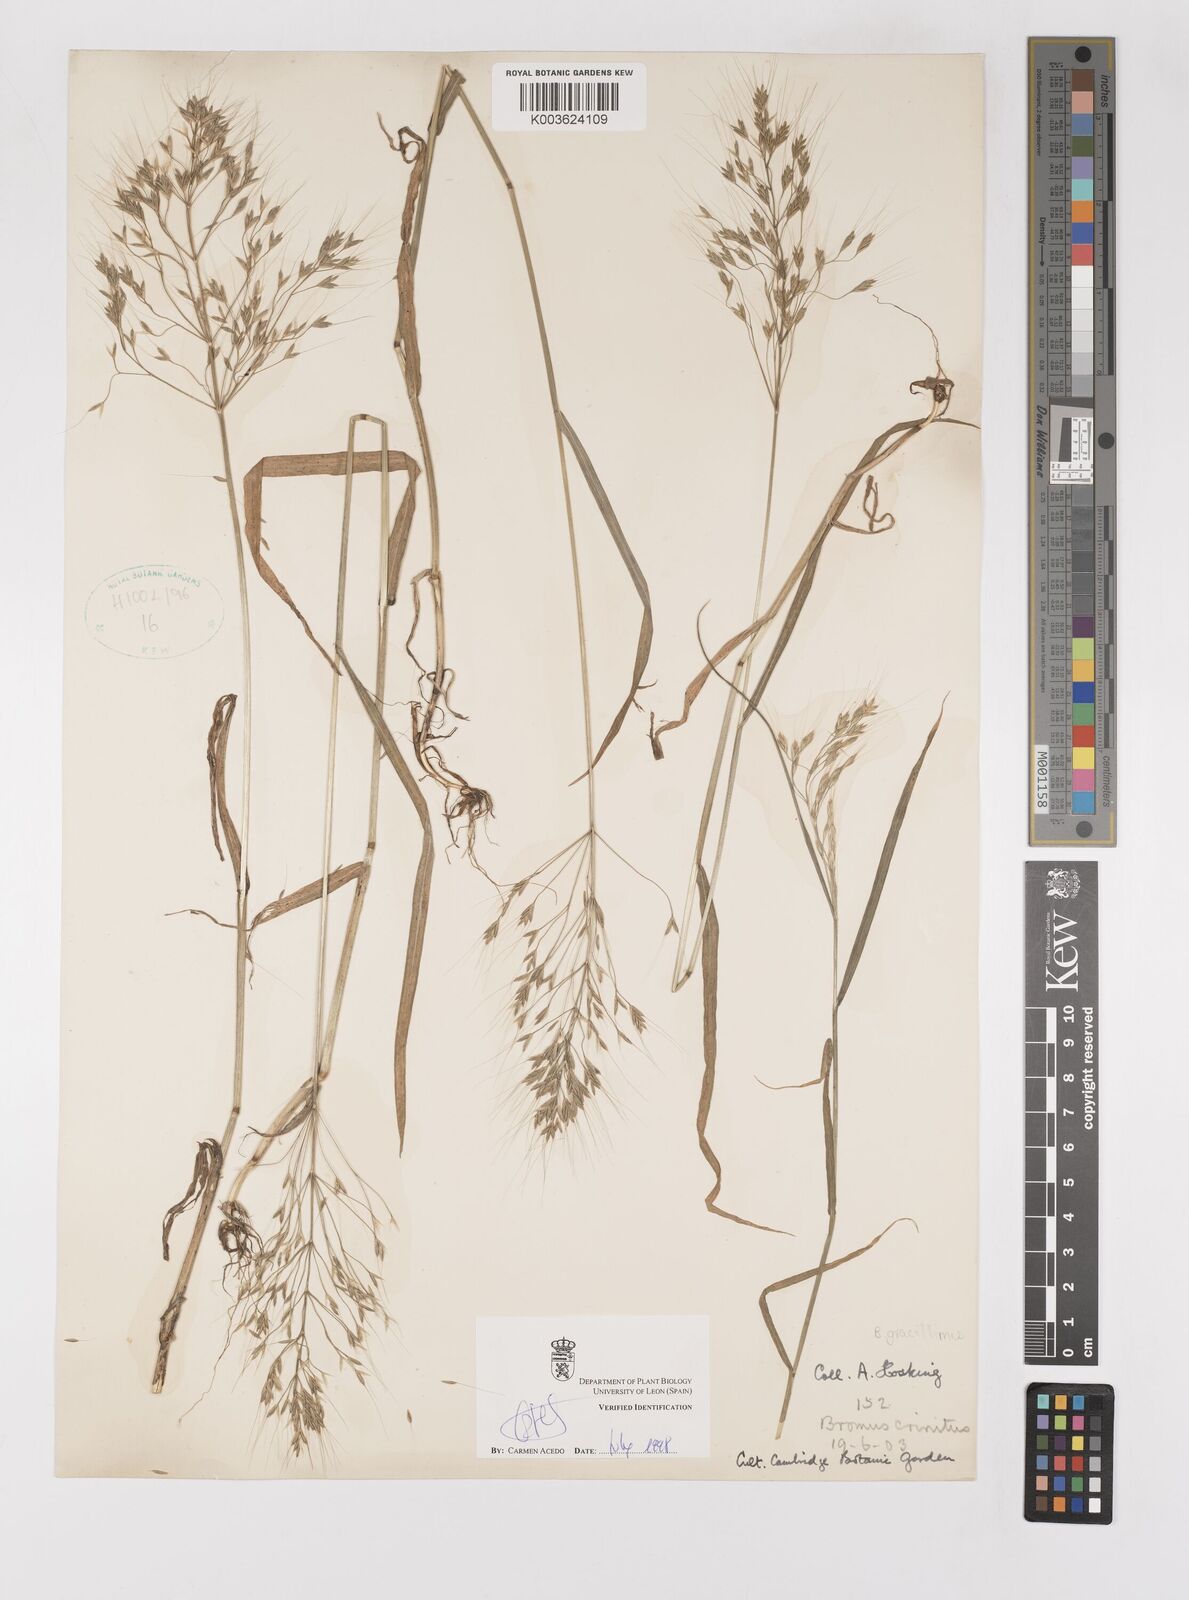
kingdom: Plantae
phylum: Tracheophyta
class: Liliopsida
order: Poales
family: Poaceae
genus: Bromus
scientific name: Bromus gracillimus
